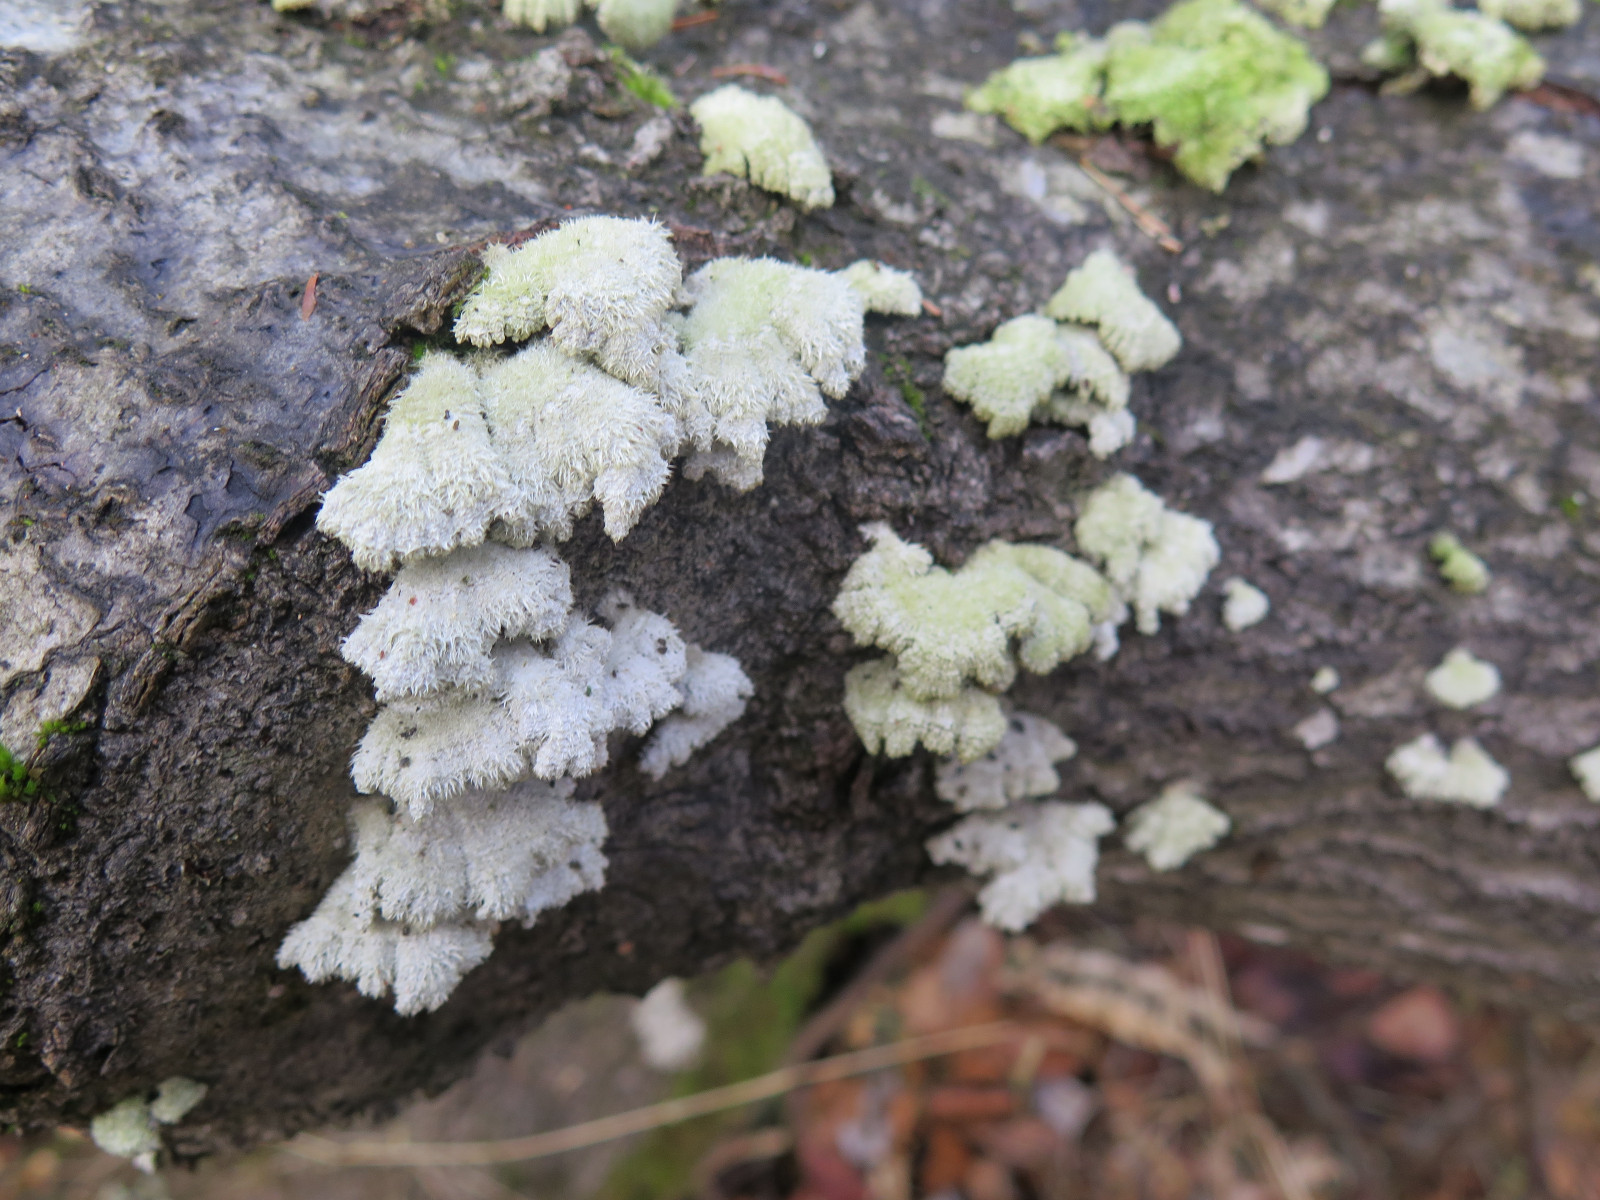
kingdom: Fungi
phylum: Basidiomycota
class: Agaricomycetes
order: Agaricales
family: Schizophyllaceae
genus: Schizophyllum
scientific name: Schizophyllum commune
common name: kløvblad
